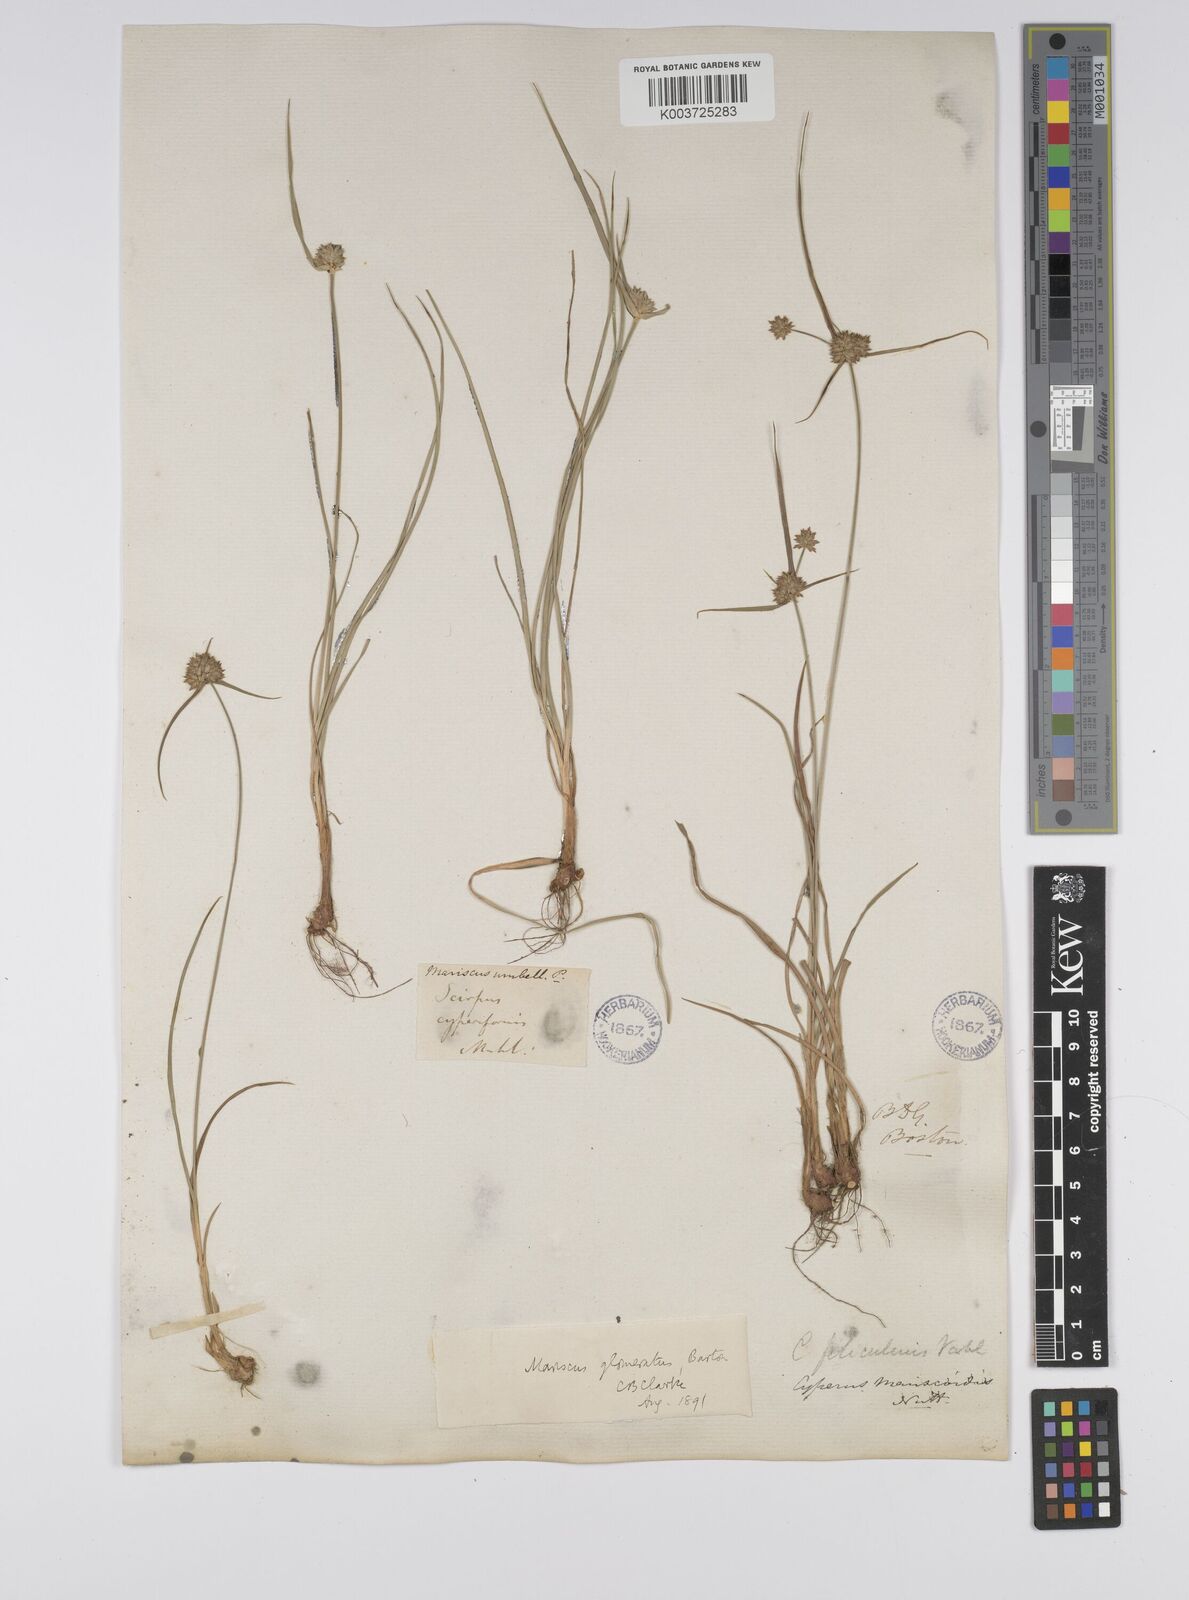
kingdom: Plantae
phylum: Tracheophyta
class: Liliopsida
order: Poales
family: Cyperaceae
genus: Cyperus
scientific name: Cyperus lupulinus
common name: Great plains flatsedge
